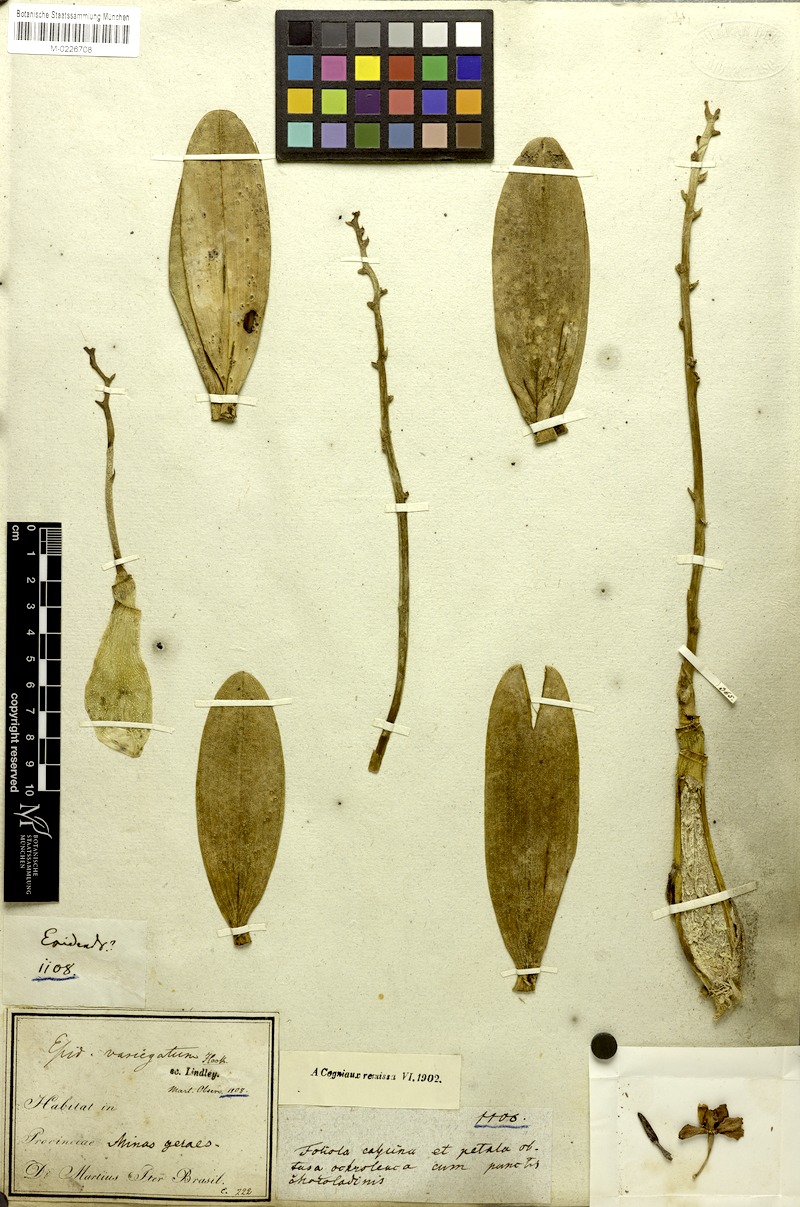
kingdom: Plantae
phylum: Tracheophyta
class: Liliopsida
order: Asparagales
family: Orchidaceae
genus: Prosthechea
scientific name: Prosthechea crassilabia
